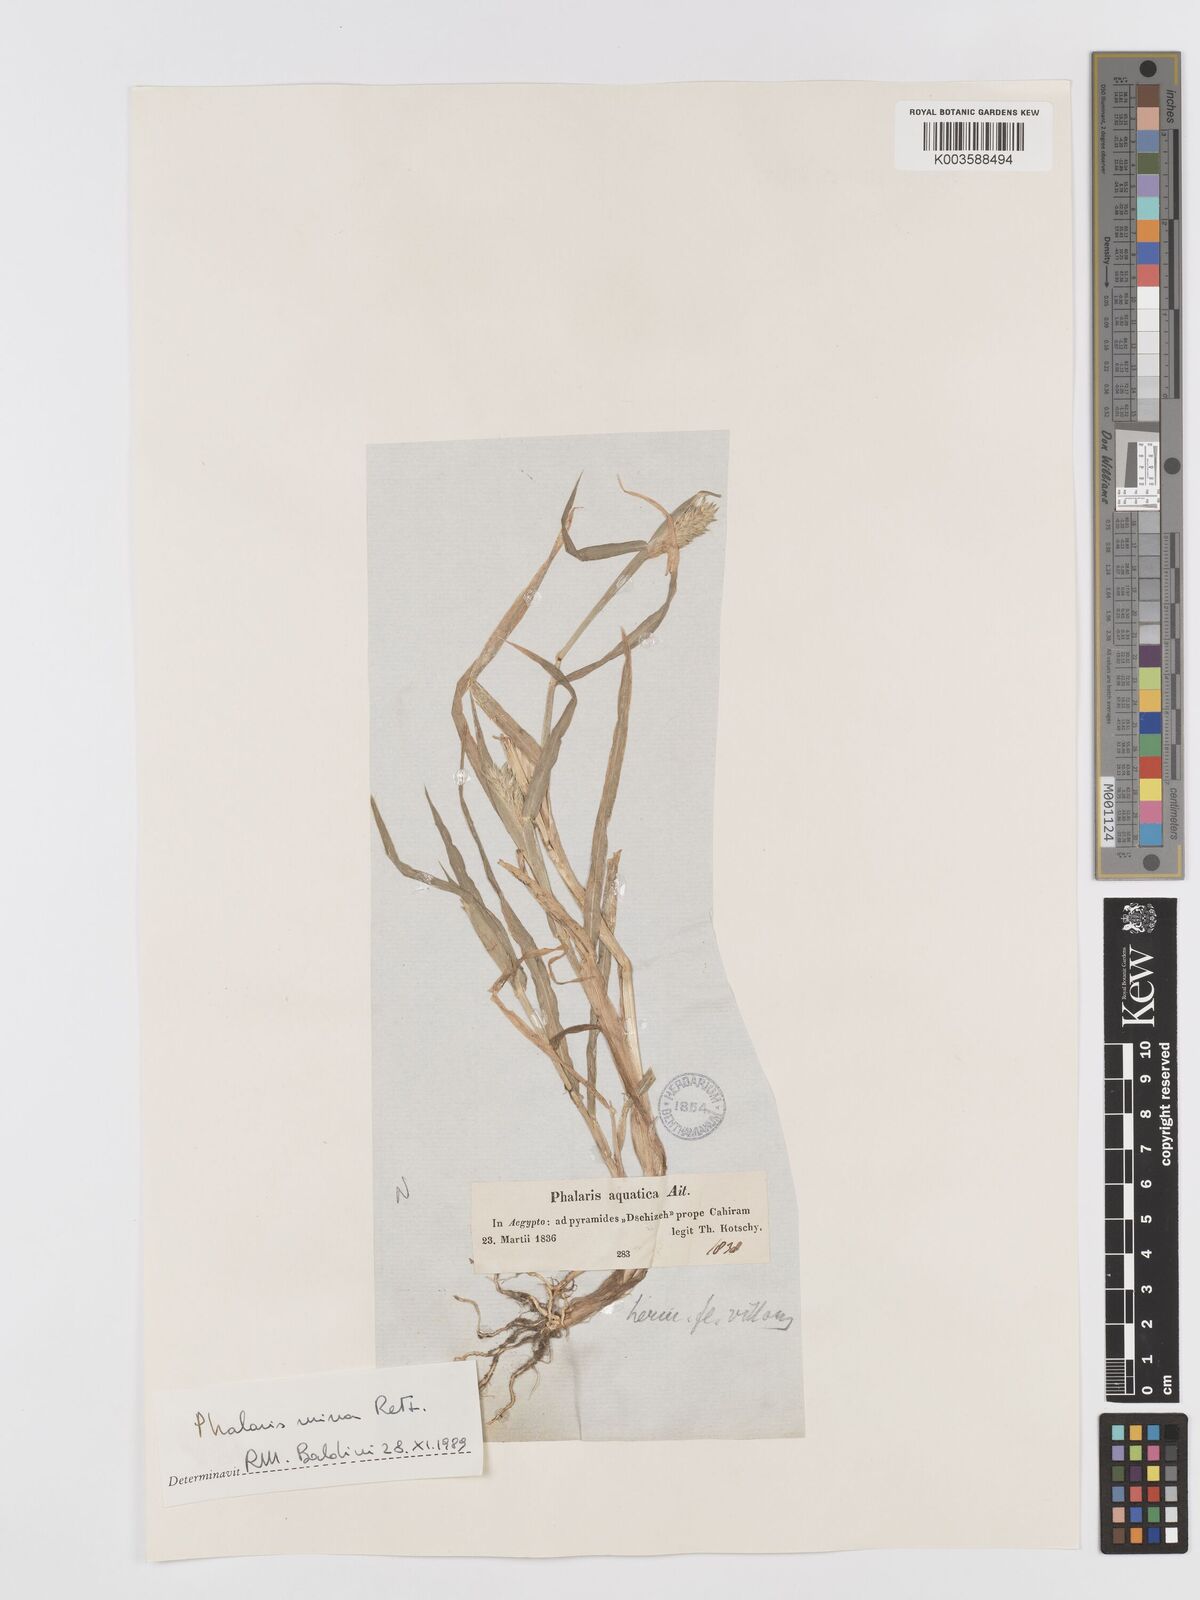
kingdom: Plantae
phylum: Tracheophyta
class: Liliopsida
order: Poales
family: Poaceae
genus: Phalaris
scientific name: Phalaris minor
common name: Littleseed canarygrass
